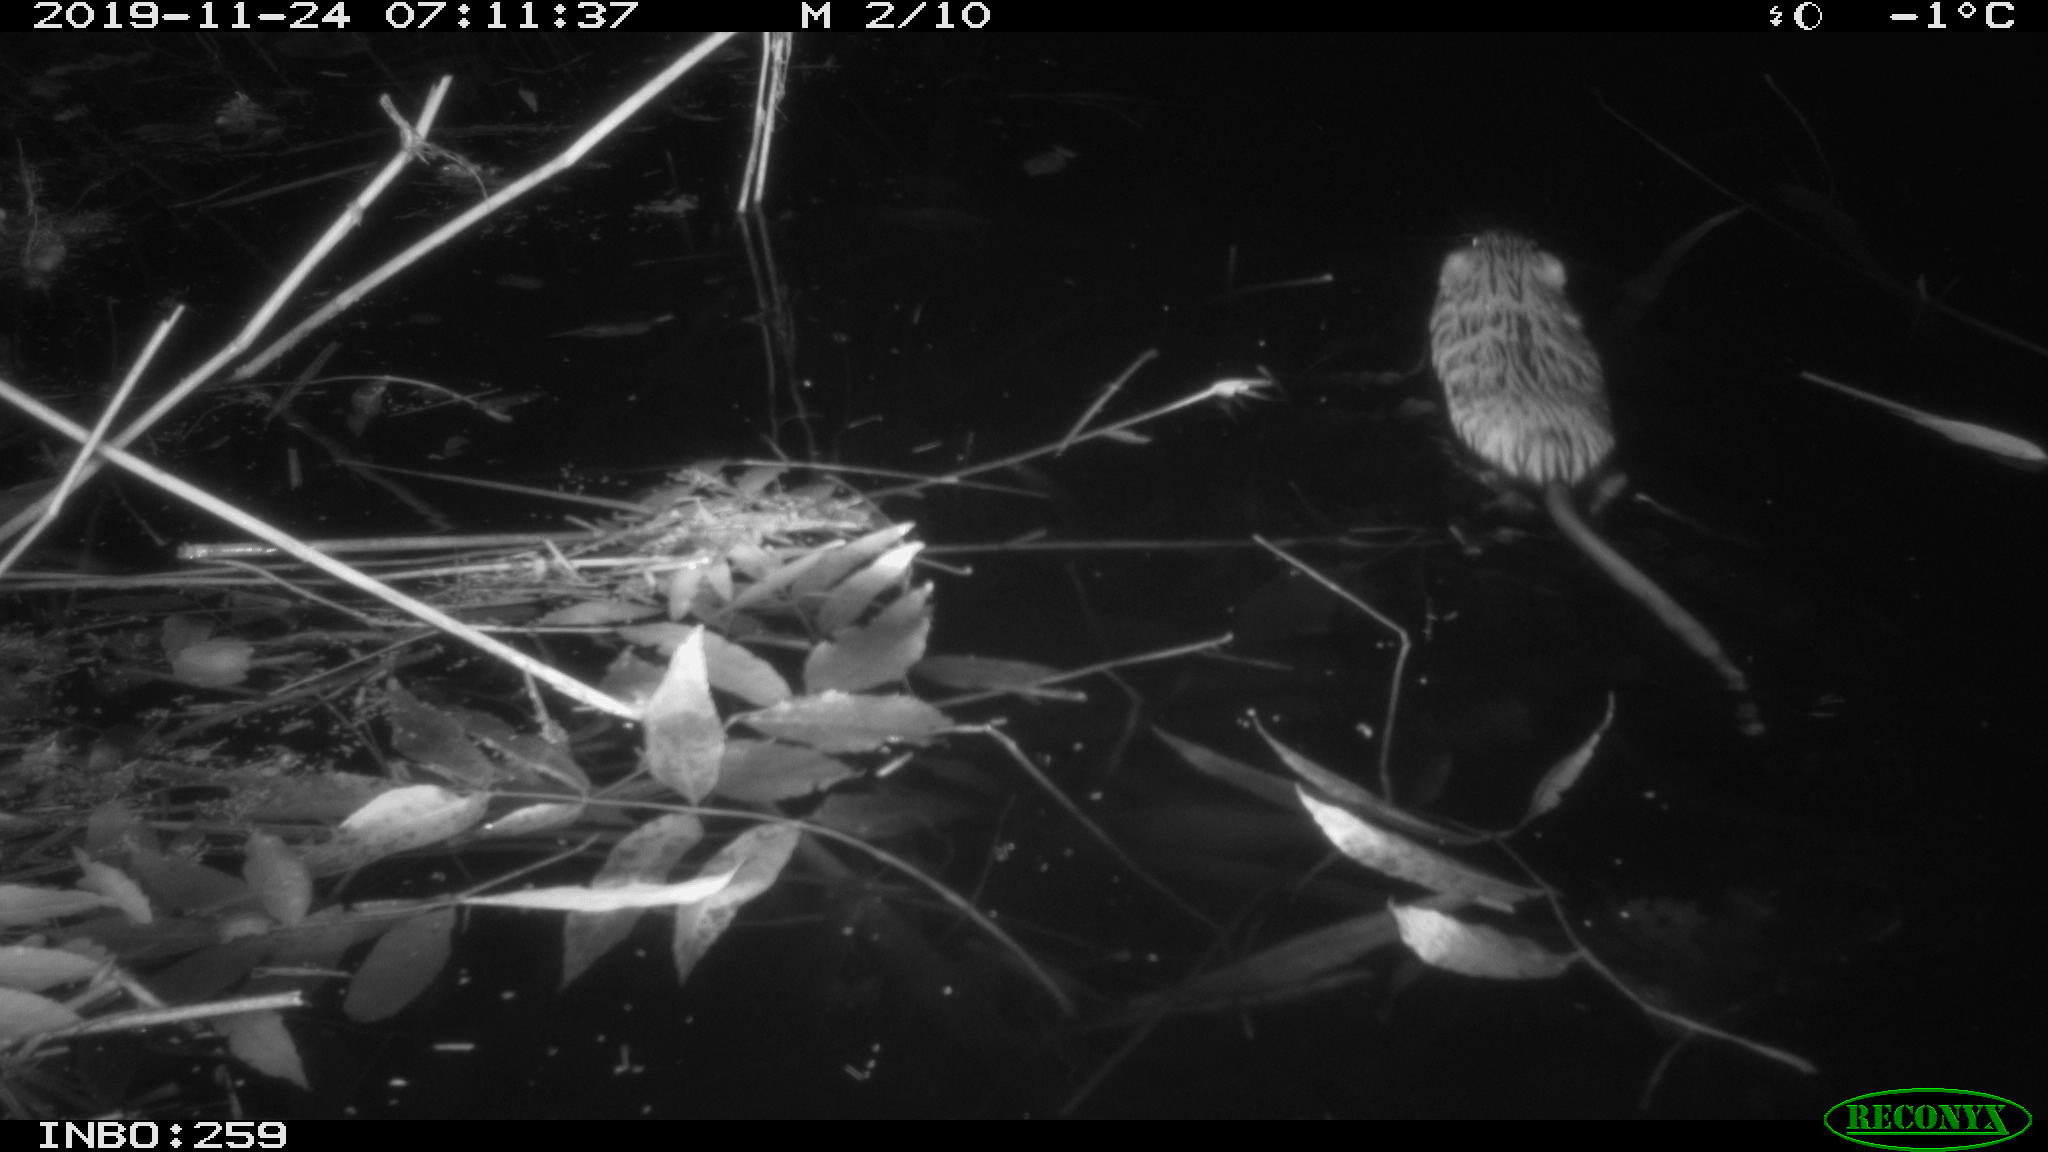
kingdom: Animalia
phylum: Chordata
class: Mammalia
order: Rodentia
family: Cricetidae
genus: Ondatra
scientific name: Ondatra zibethicus
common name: Muskrat
